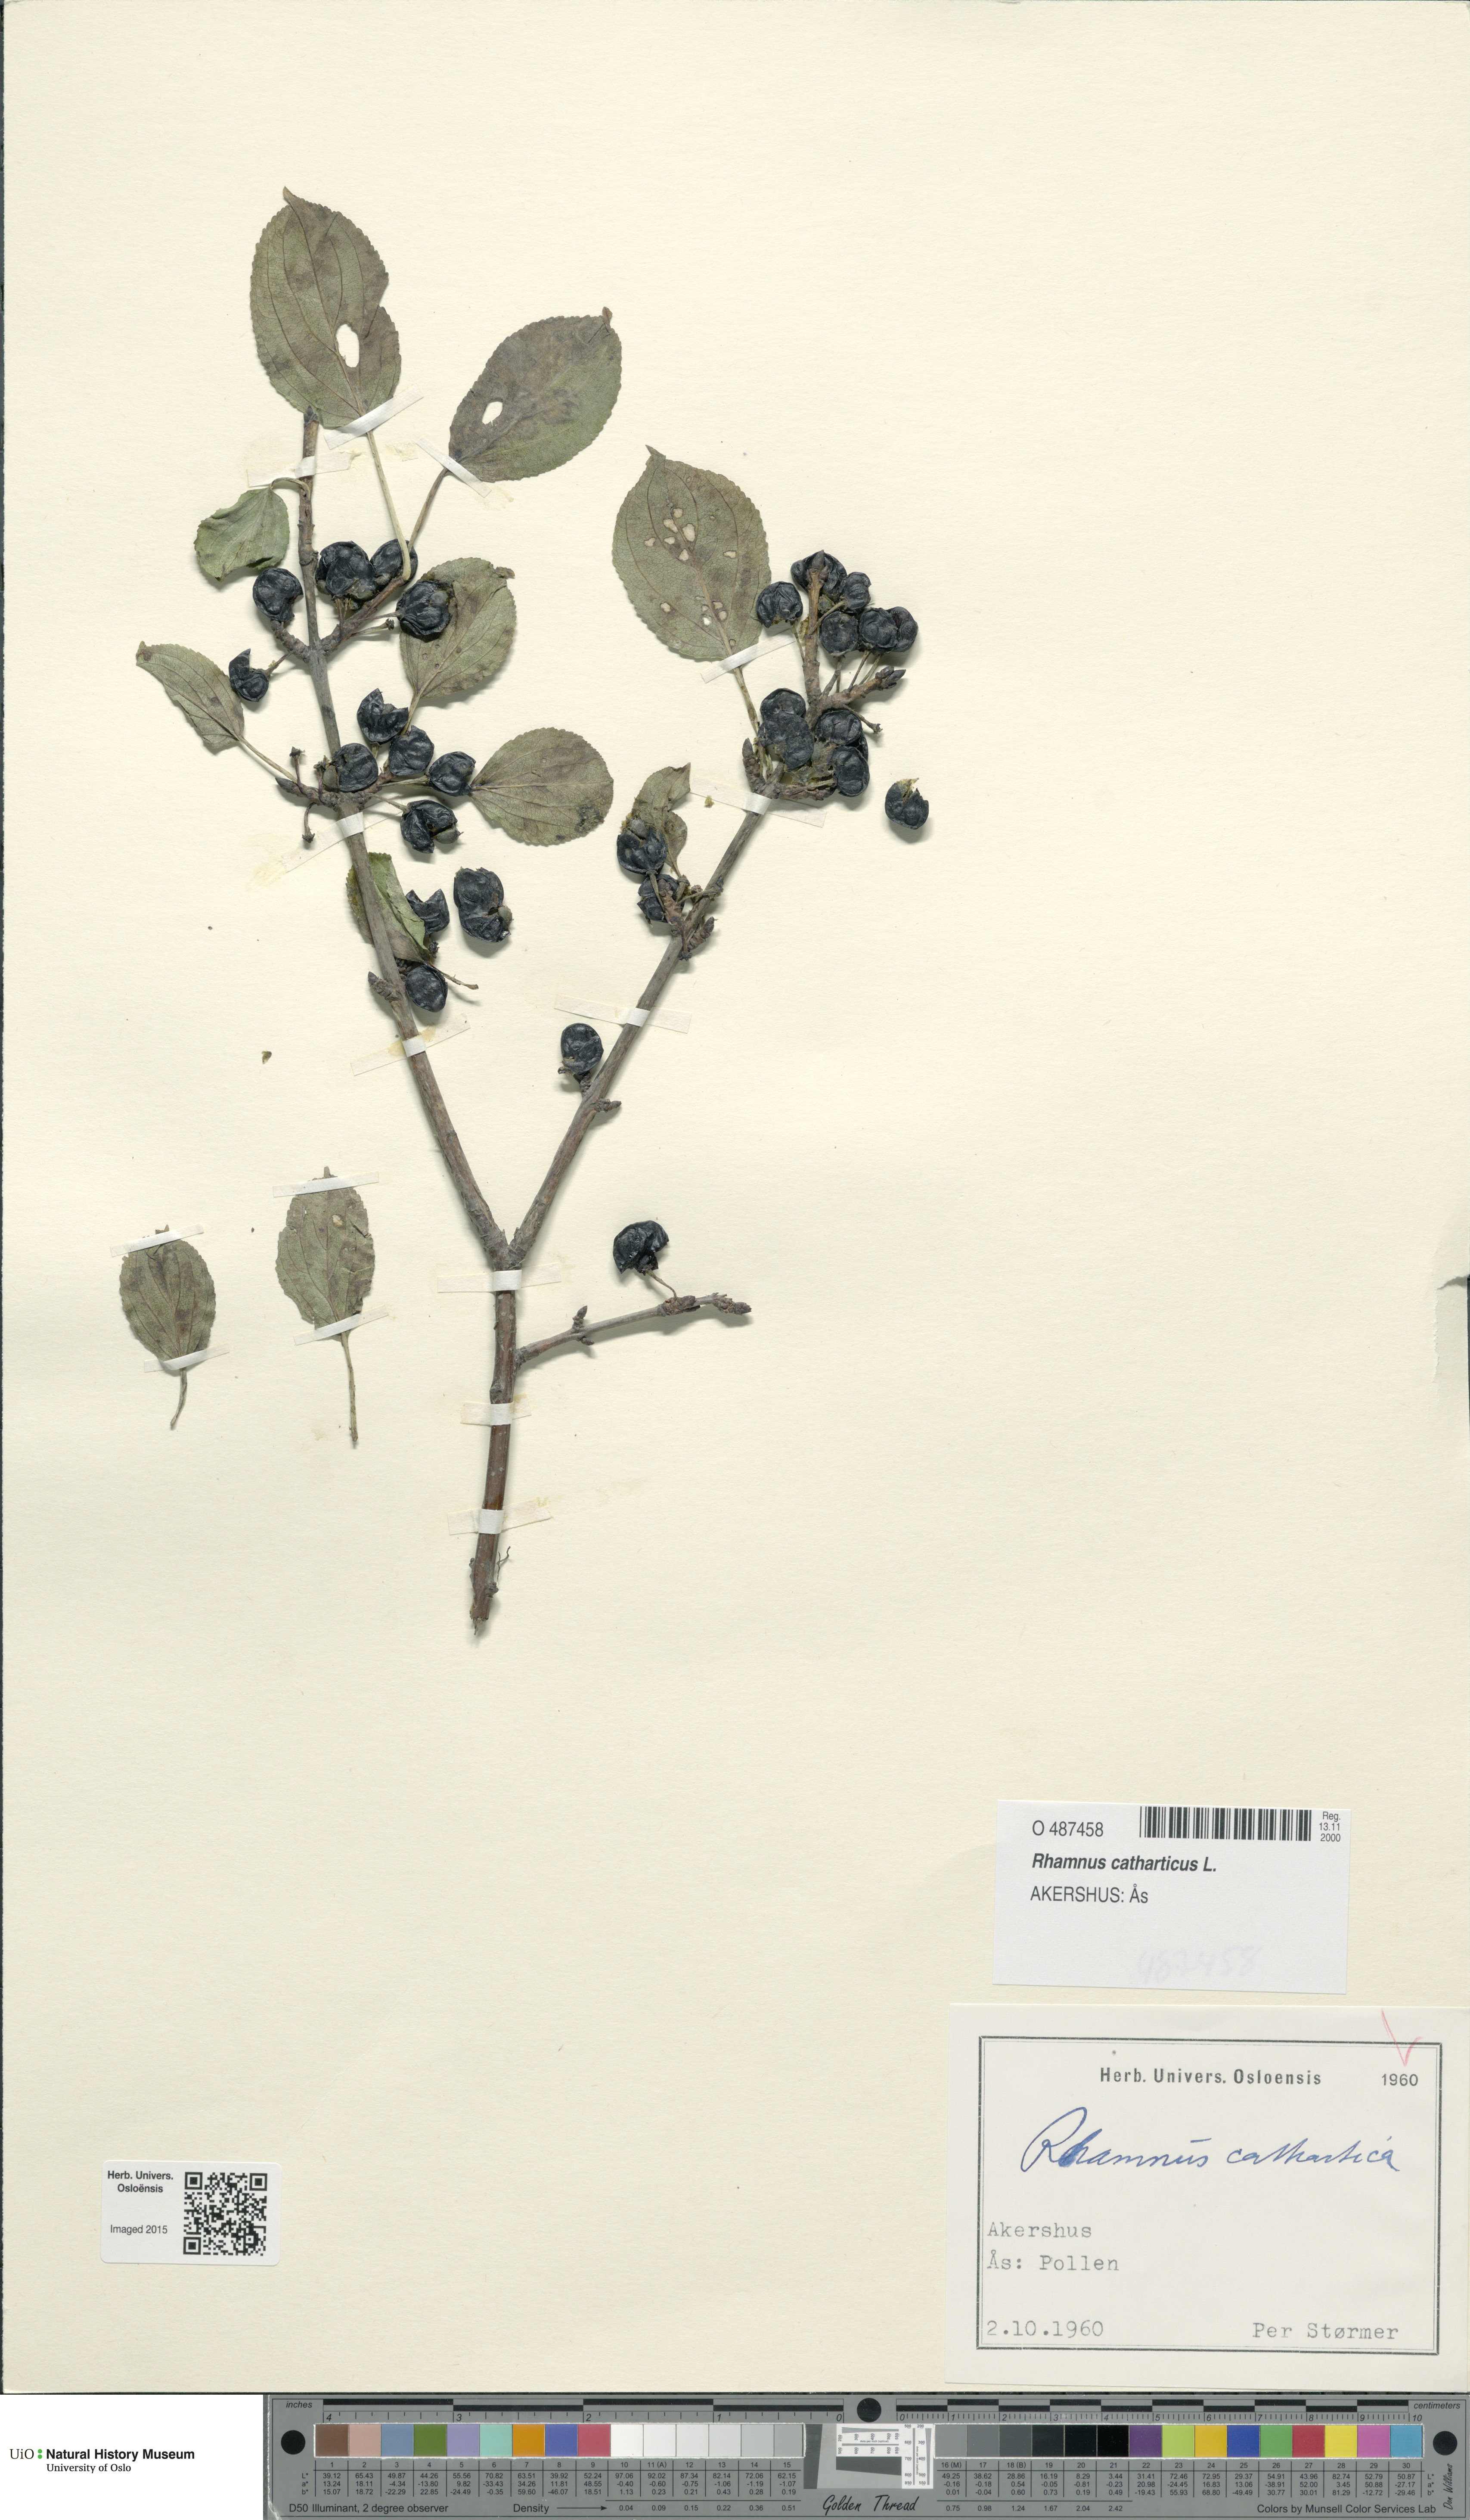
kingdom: Plantae
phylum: Tracheophyta
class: Magnoliopsida
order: Rosales
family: Rhamnaceae
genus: Rhamnus
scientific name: Rhamnus cathartica
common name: Common buckthorn
